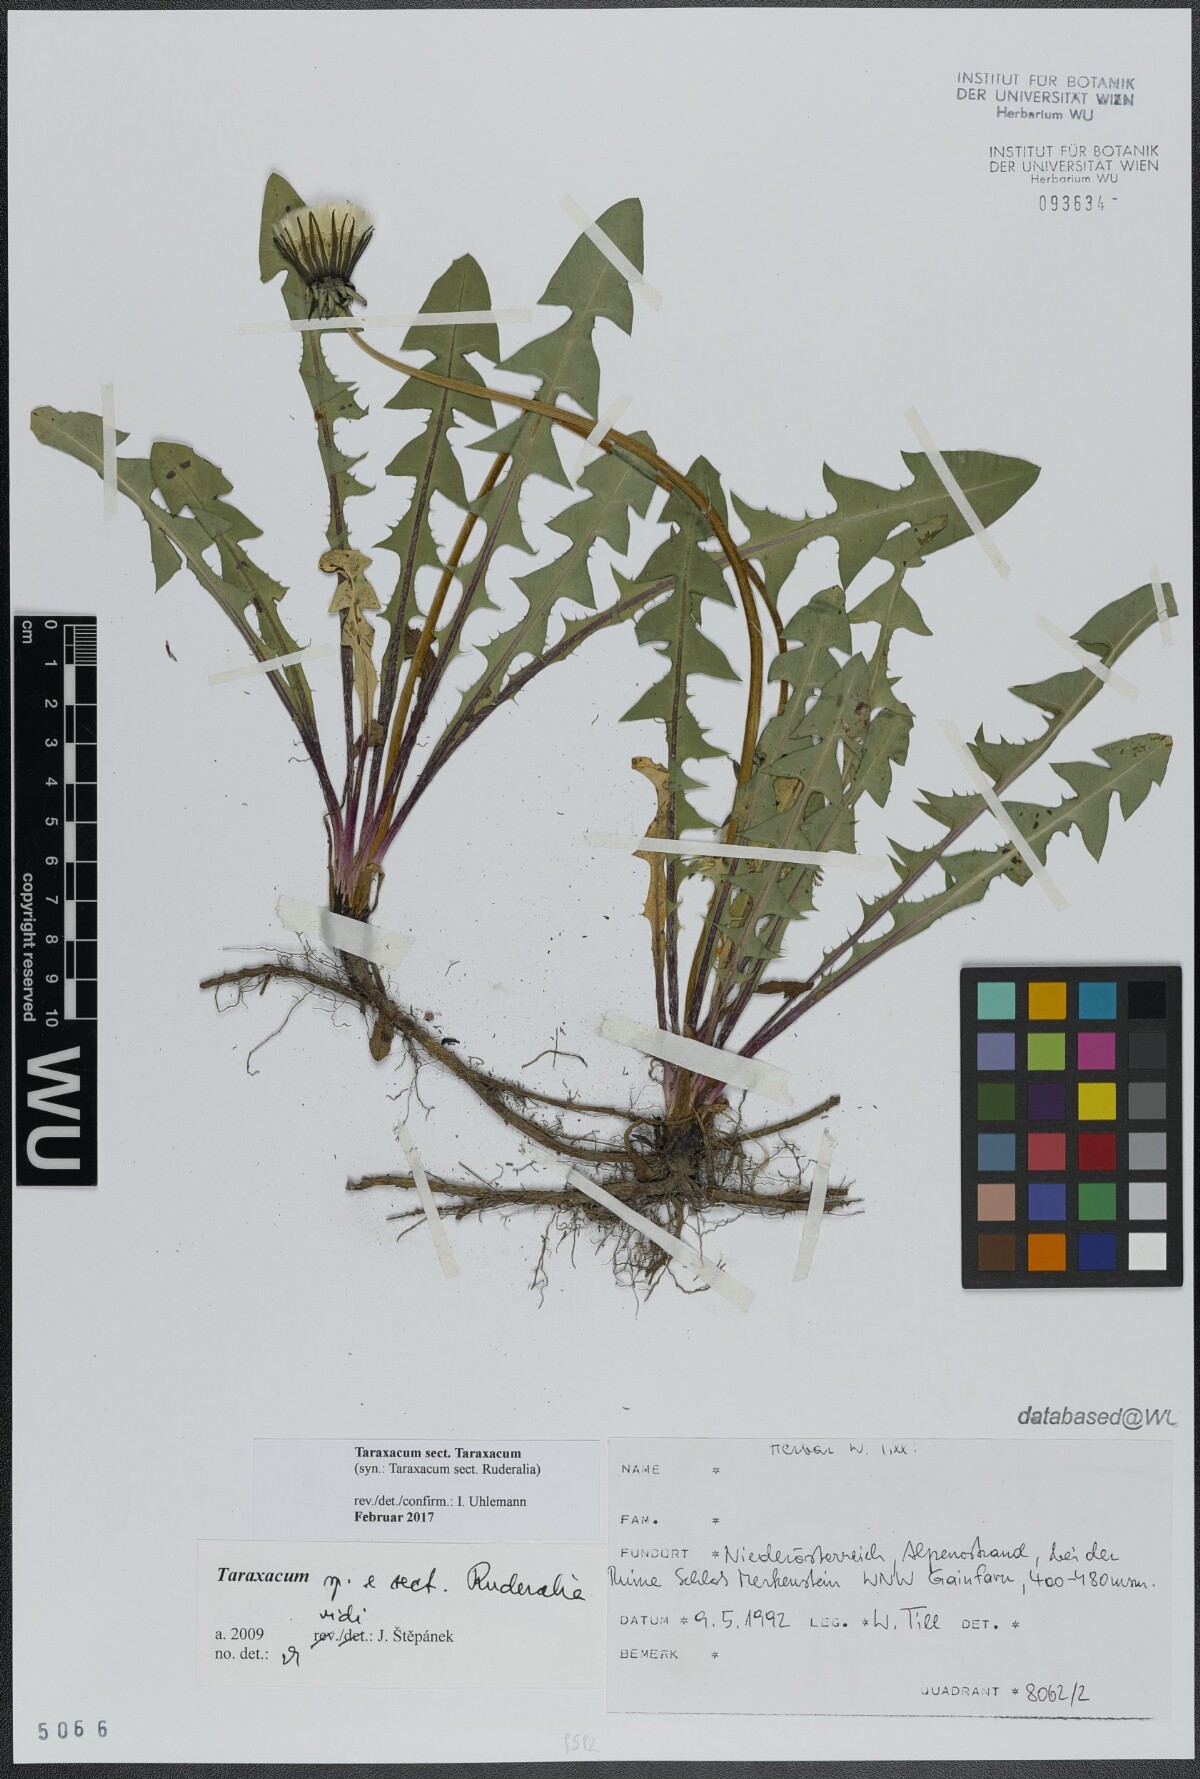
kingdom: Plantae
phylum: Tracheophyta
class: Magnoliopsida
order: Asterales
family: Asteraceae
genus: Taraxacum
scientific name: Taraxacum
